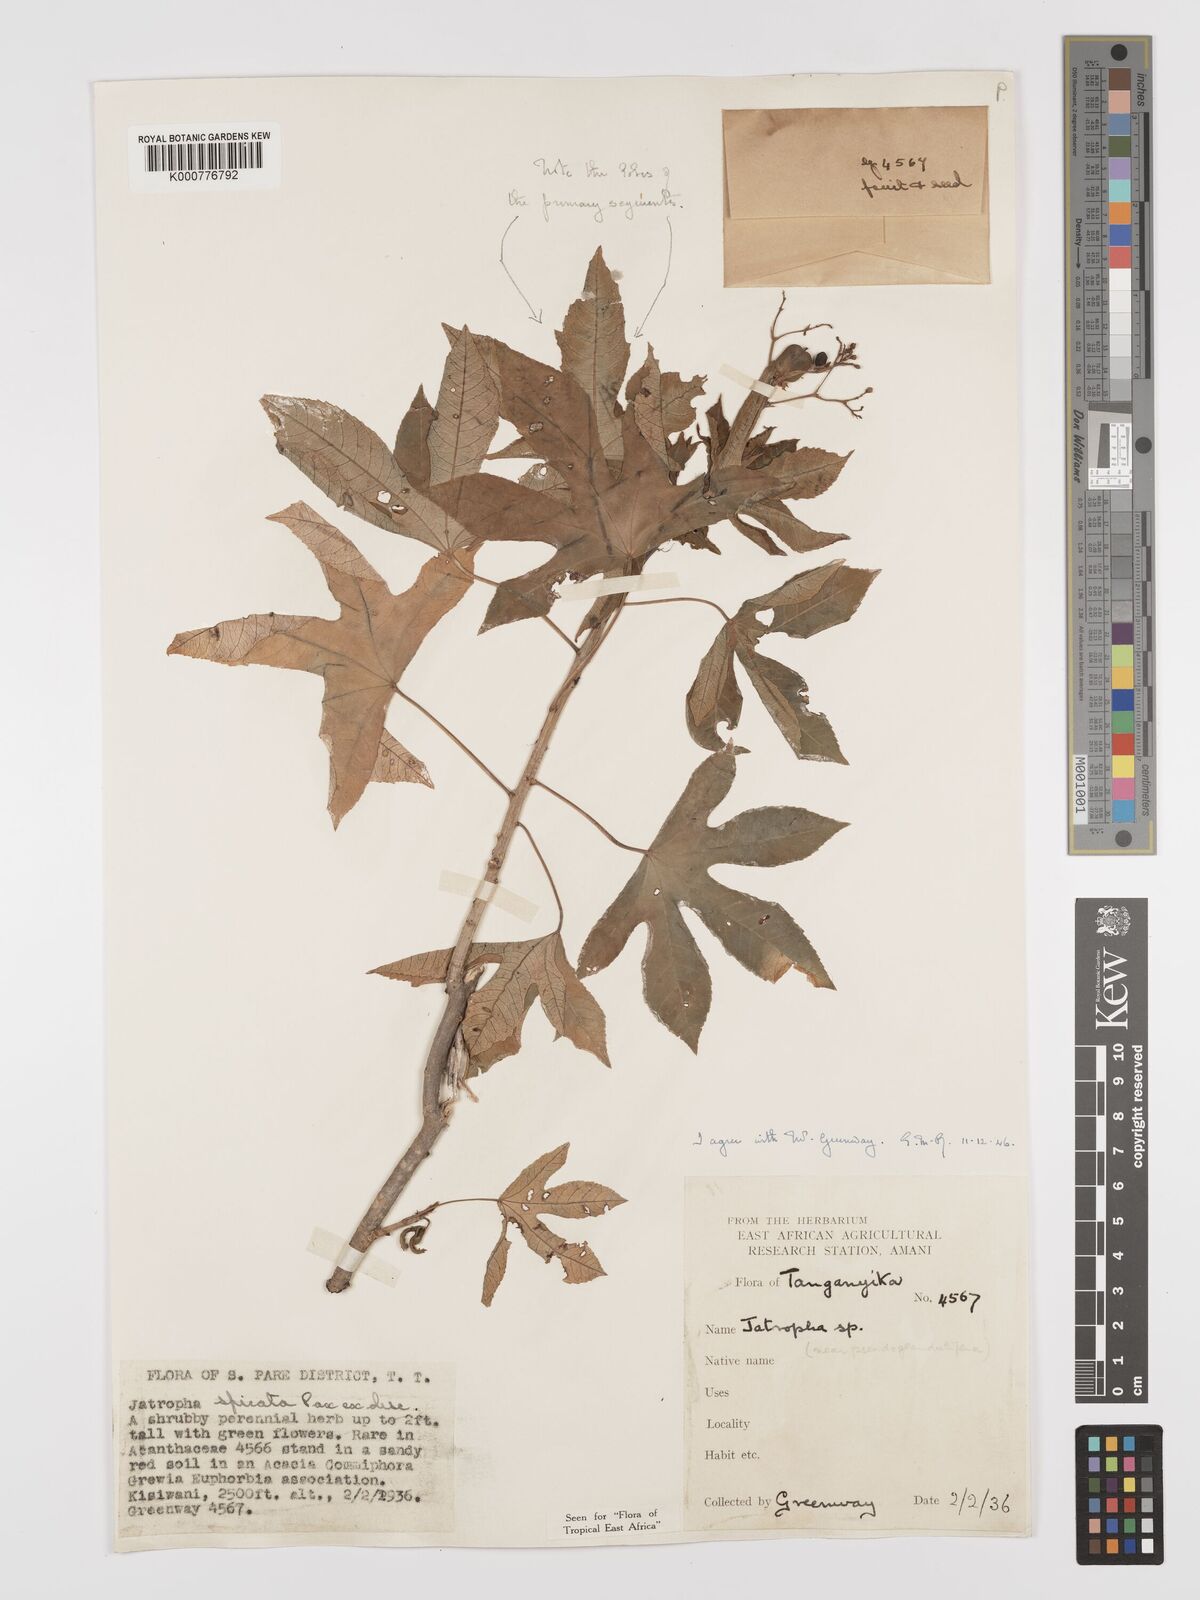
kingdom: Plantae
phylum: Tracheophyta
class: Magnoliopsida
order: Malpighiales
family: Euphorbiaceae
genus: Jatropha
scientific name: Jatropha spicata
